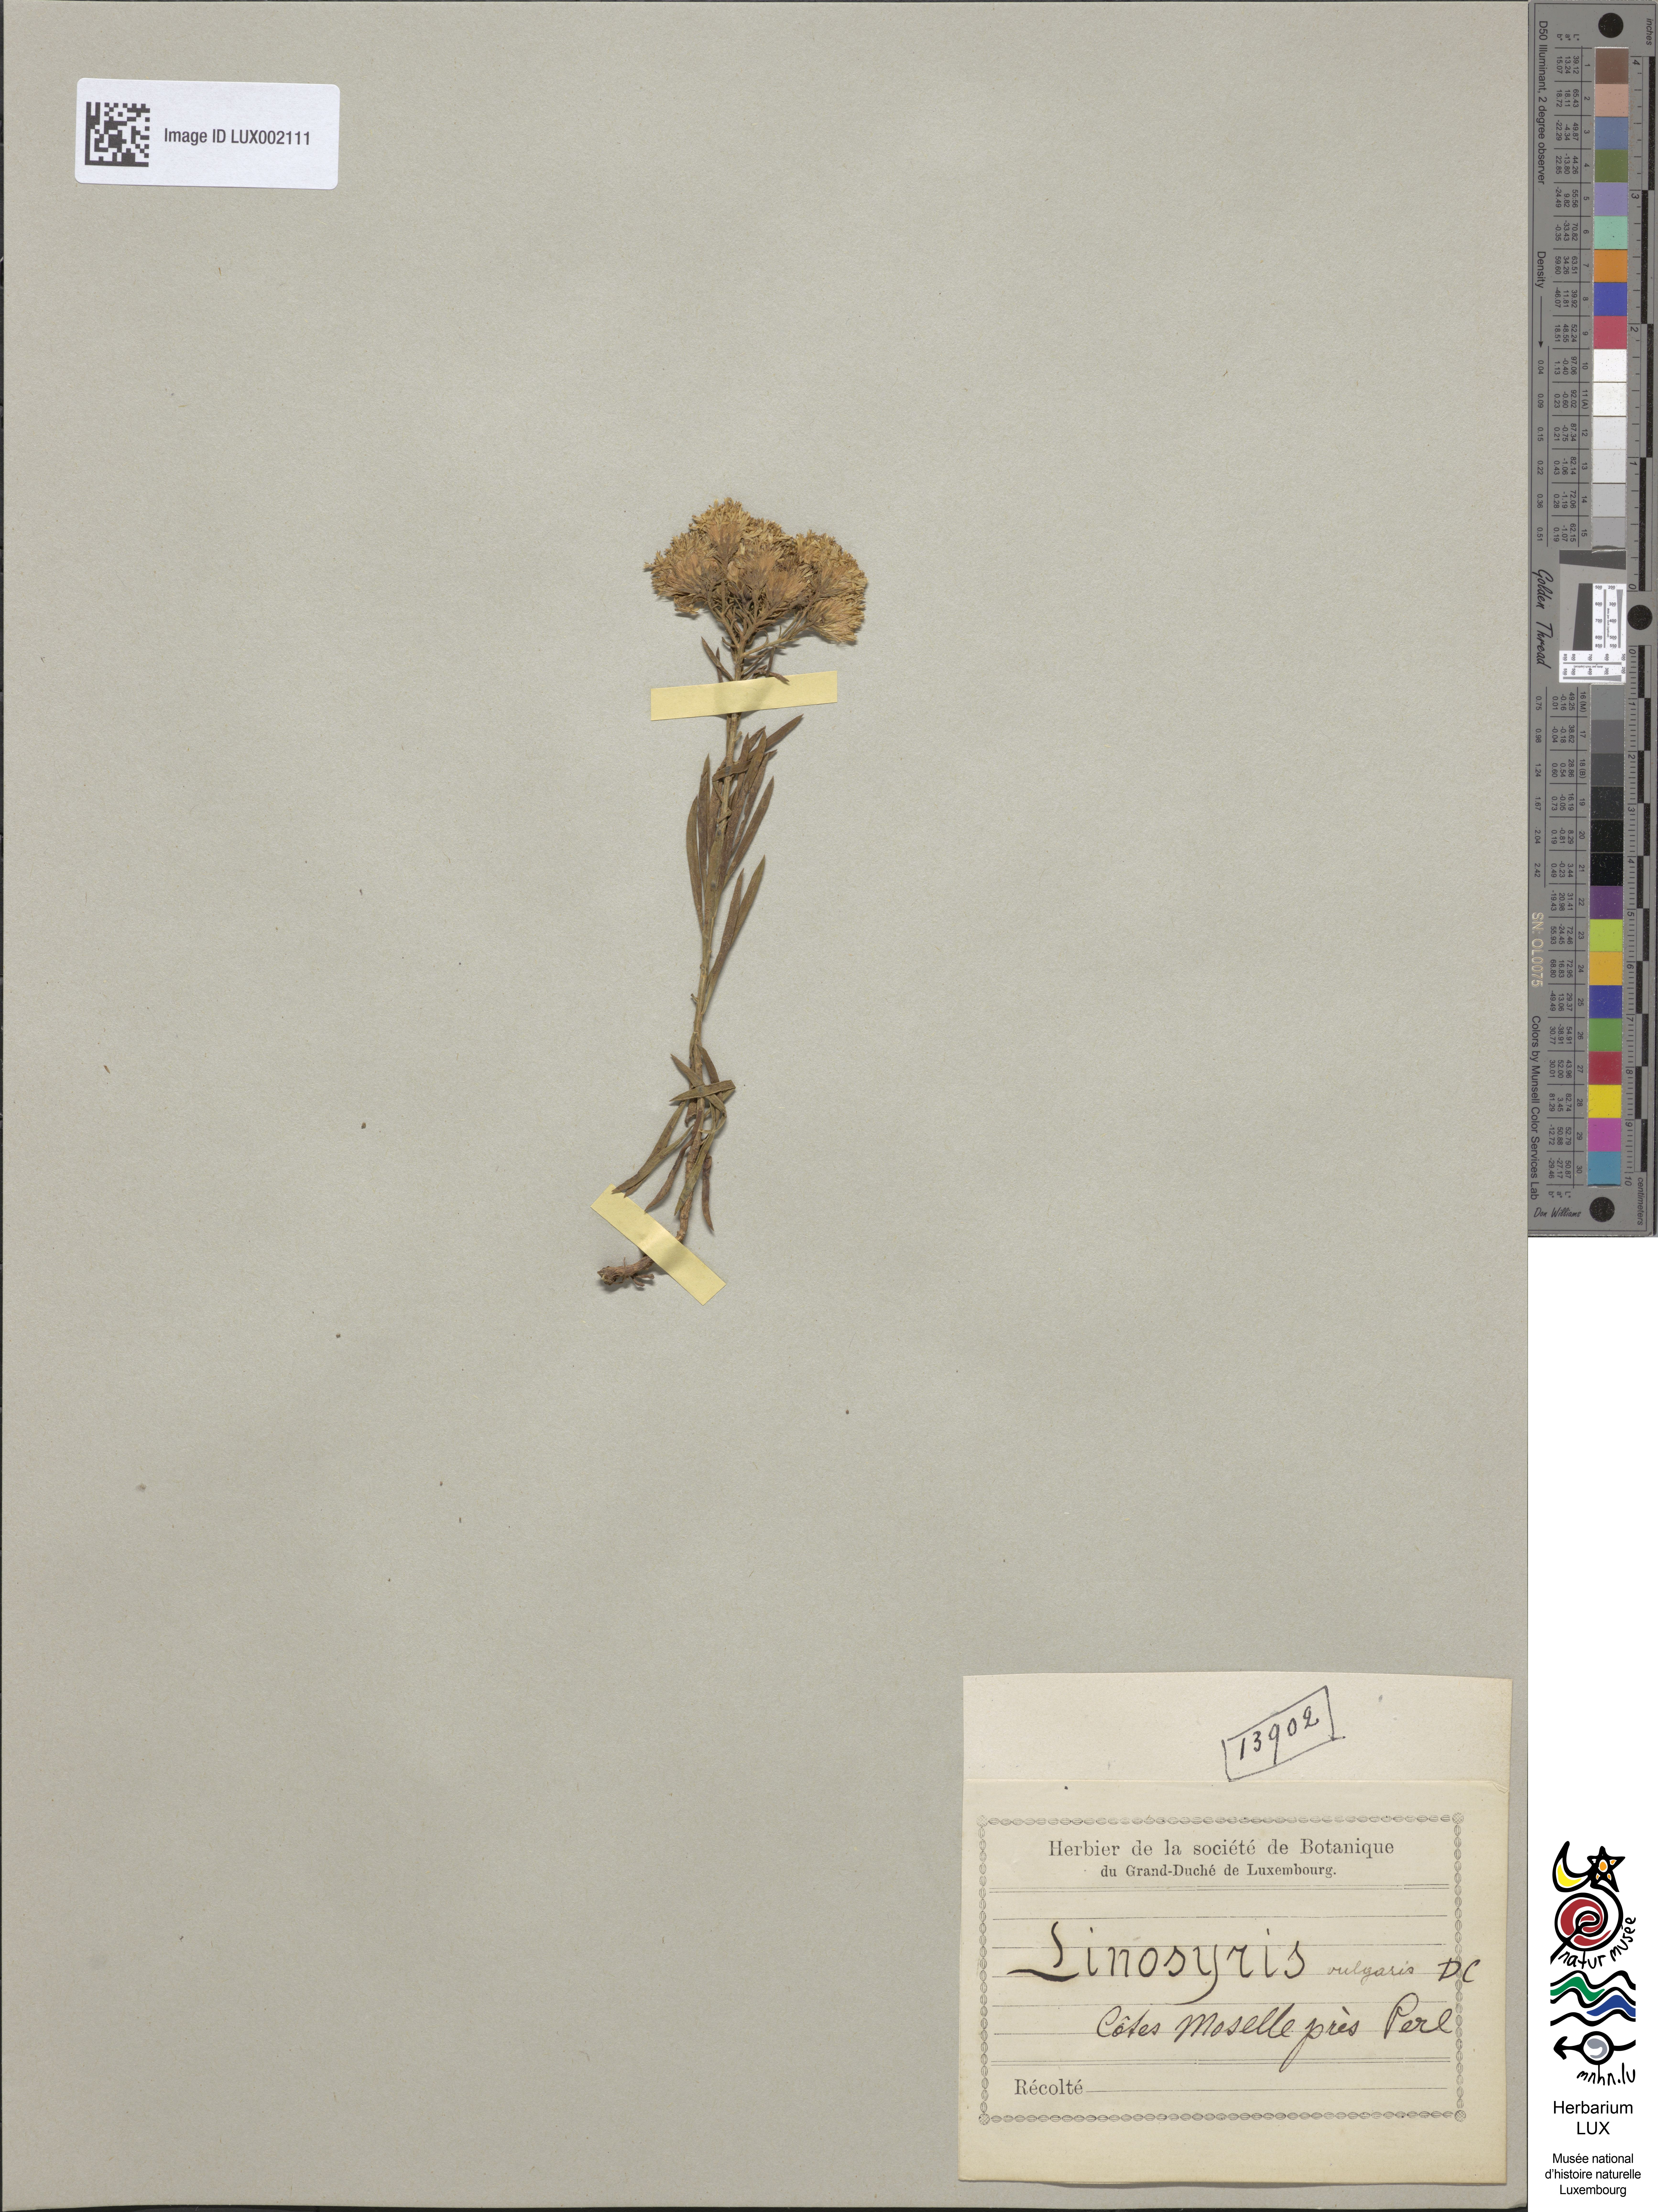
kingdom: Plantae
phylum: Tracheophyta
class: Magnoliopsida
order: Asterales
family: Asteraceae
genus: Galatella
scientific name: Galatella linosyris
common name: Goldilocks aster
